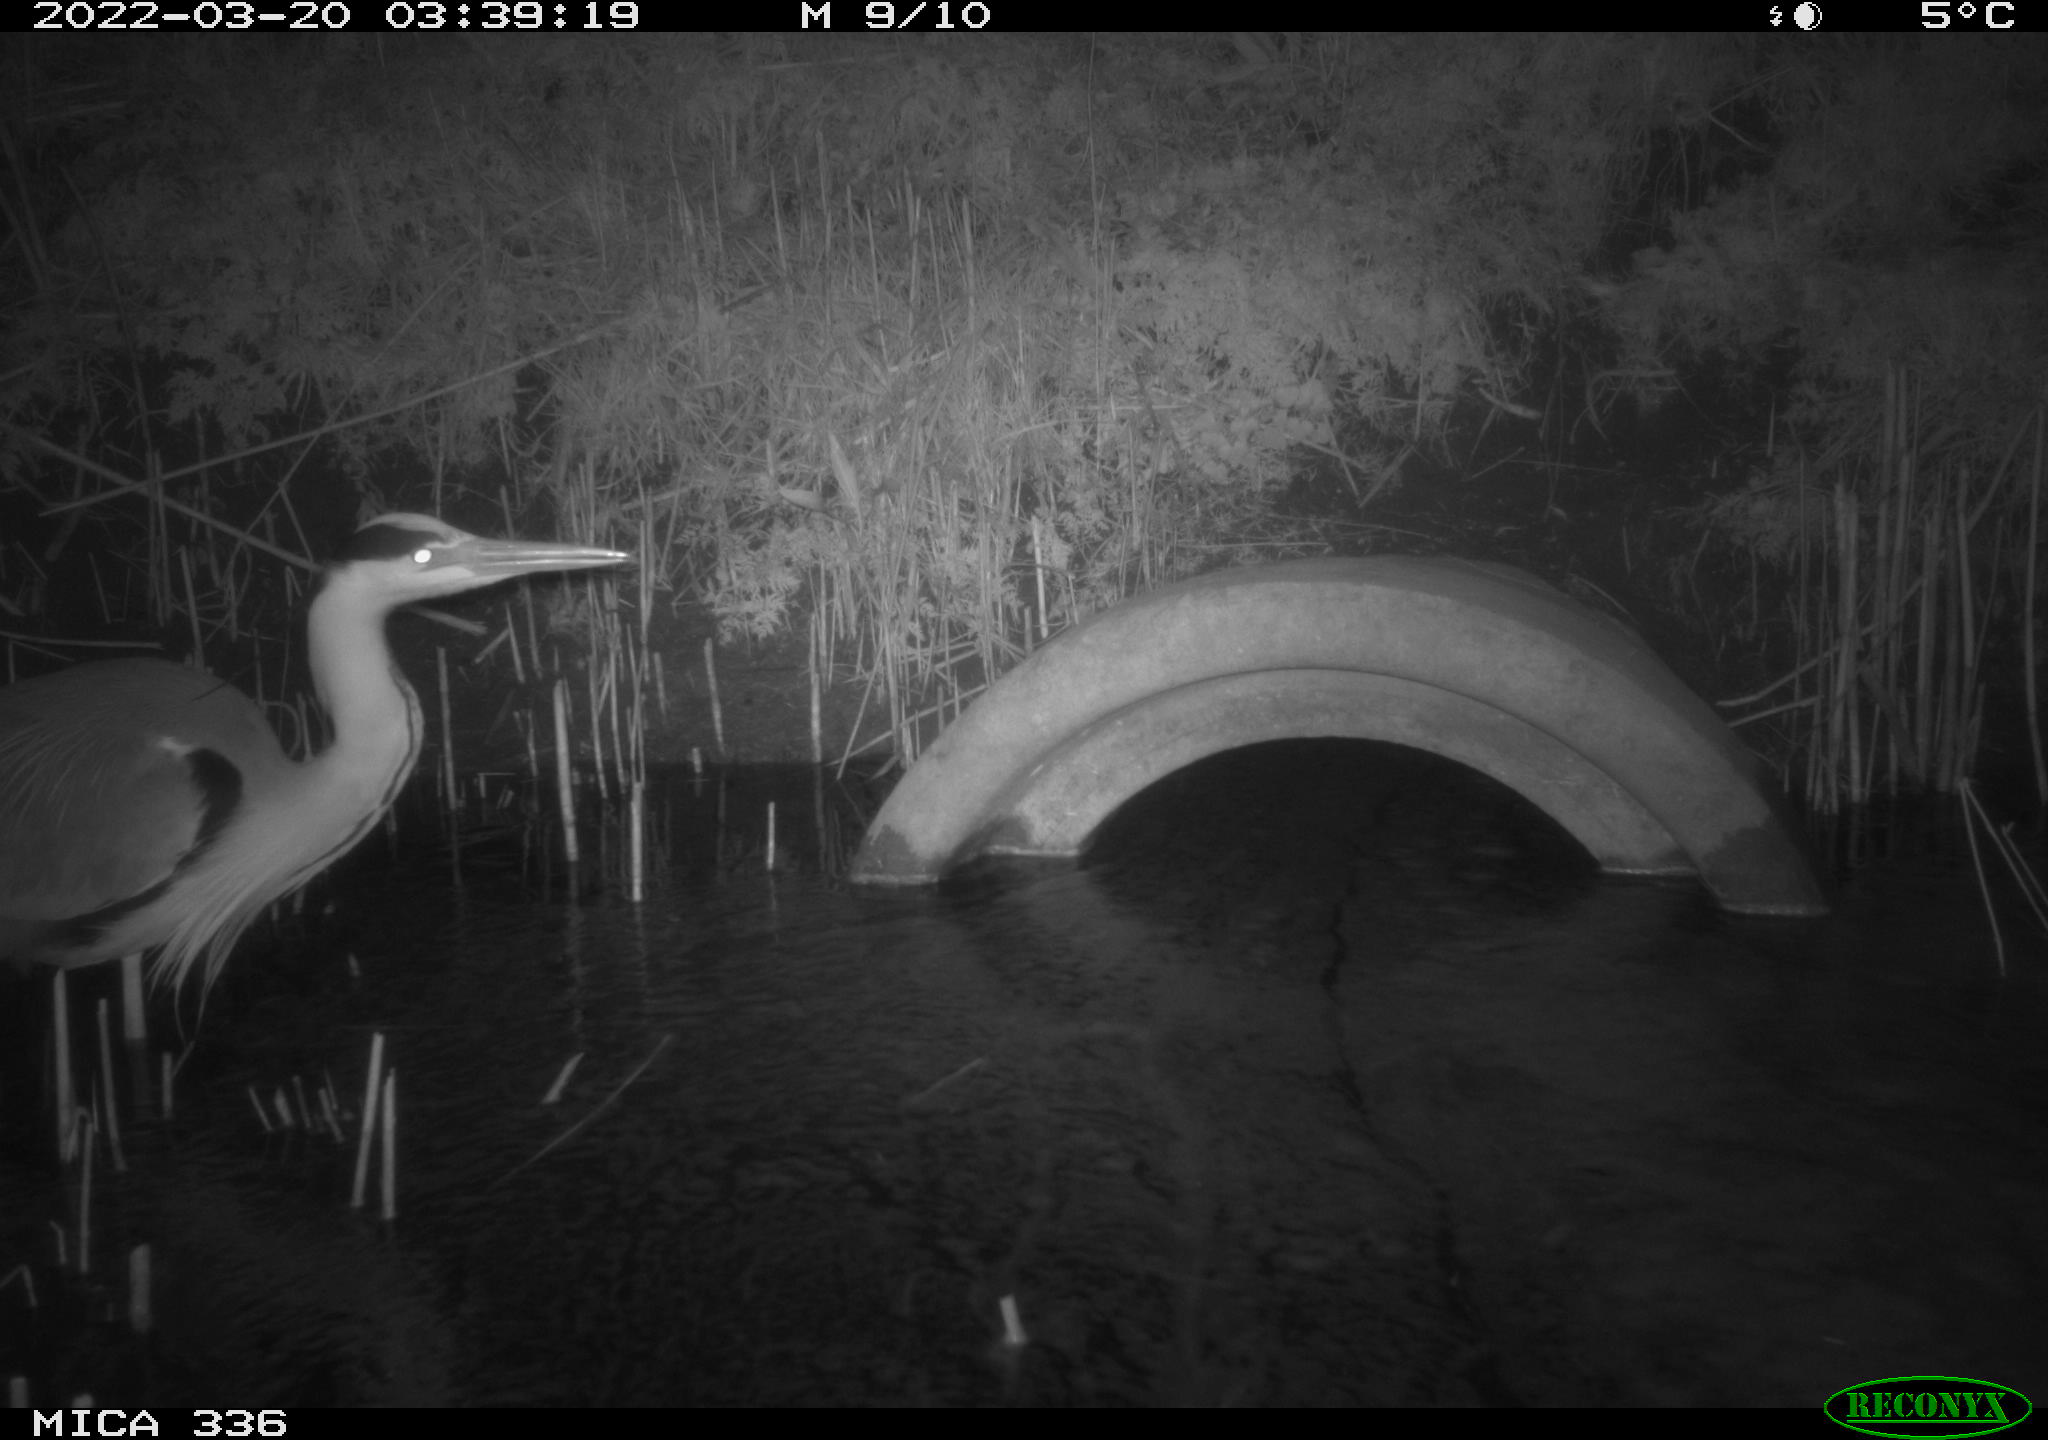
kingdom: Animalia
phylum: Chordata
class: Aves
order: Pelecaniformes
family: Ardeidae
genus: Ardea
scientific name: Ardea cinerea
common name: Grey heron
